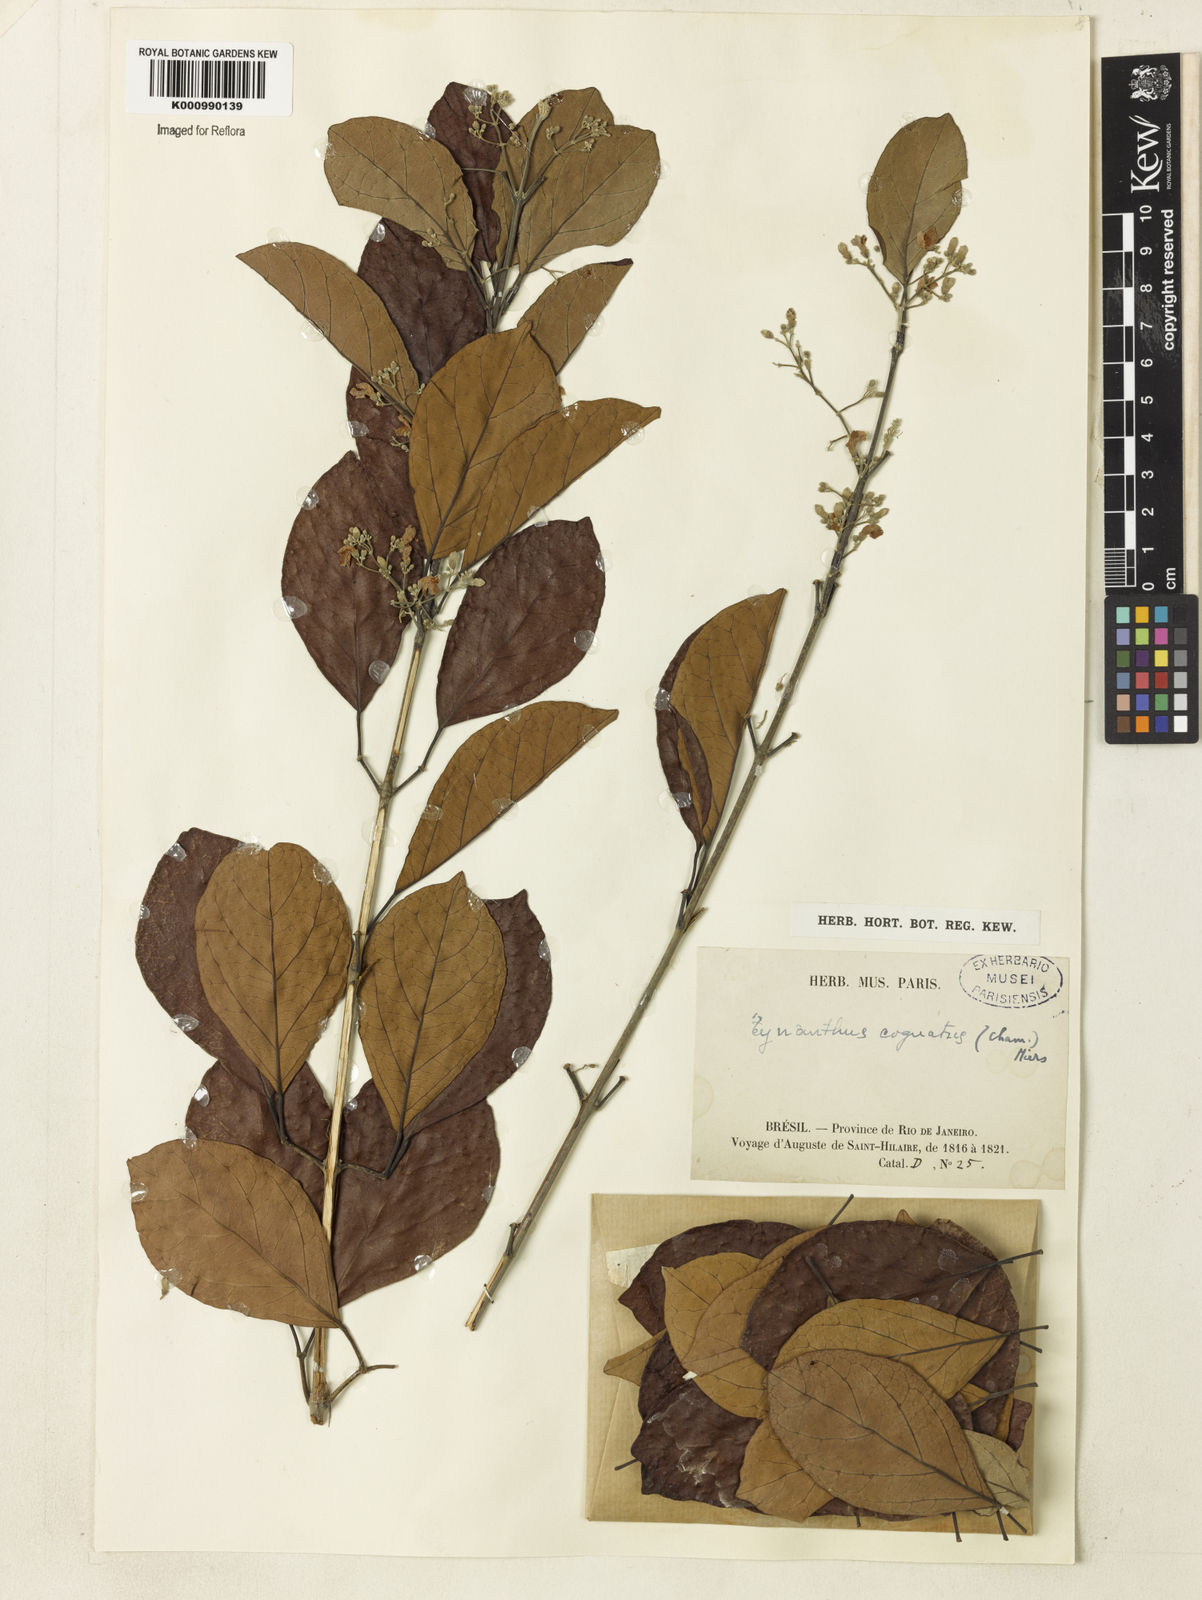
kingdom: Plantae
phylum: Tracheophyta
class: Magnoliopsida
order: Lamiales
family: Bignoniaceae
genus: Tynanthus
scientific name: Tynanthus cognatus
